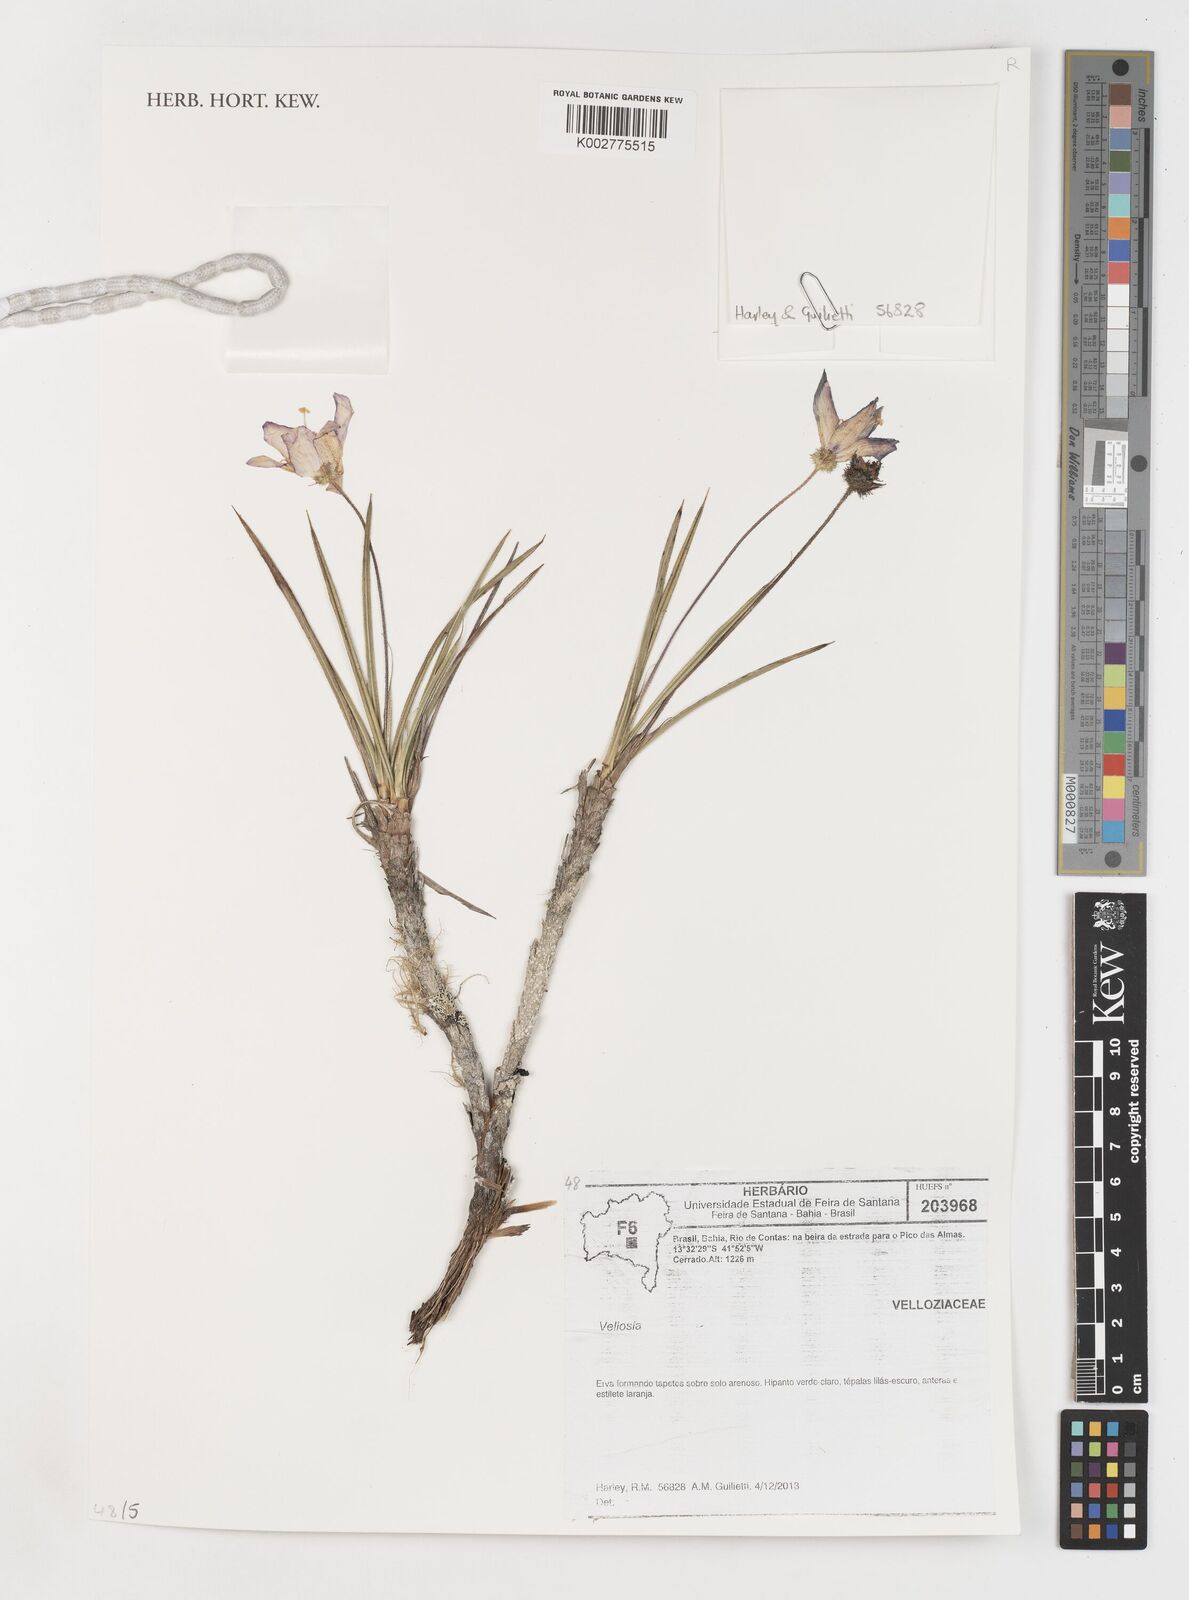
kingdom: Plantae
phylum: Tracheophyta
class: Liliopsida
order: Pandanales
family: Velloziaceae
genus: Vellozia
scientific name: Vellozia
